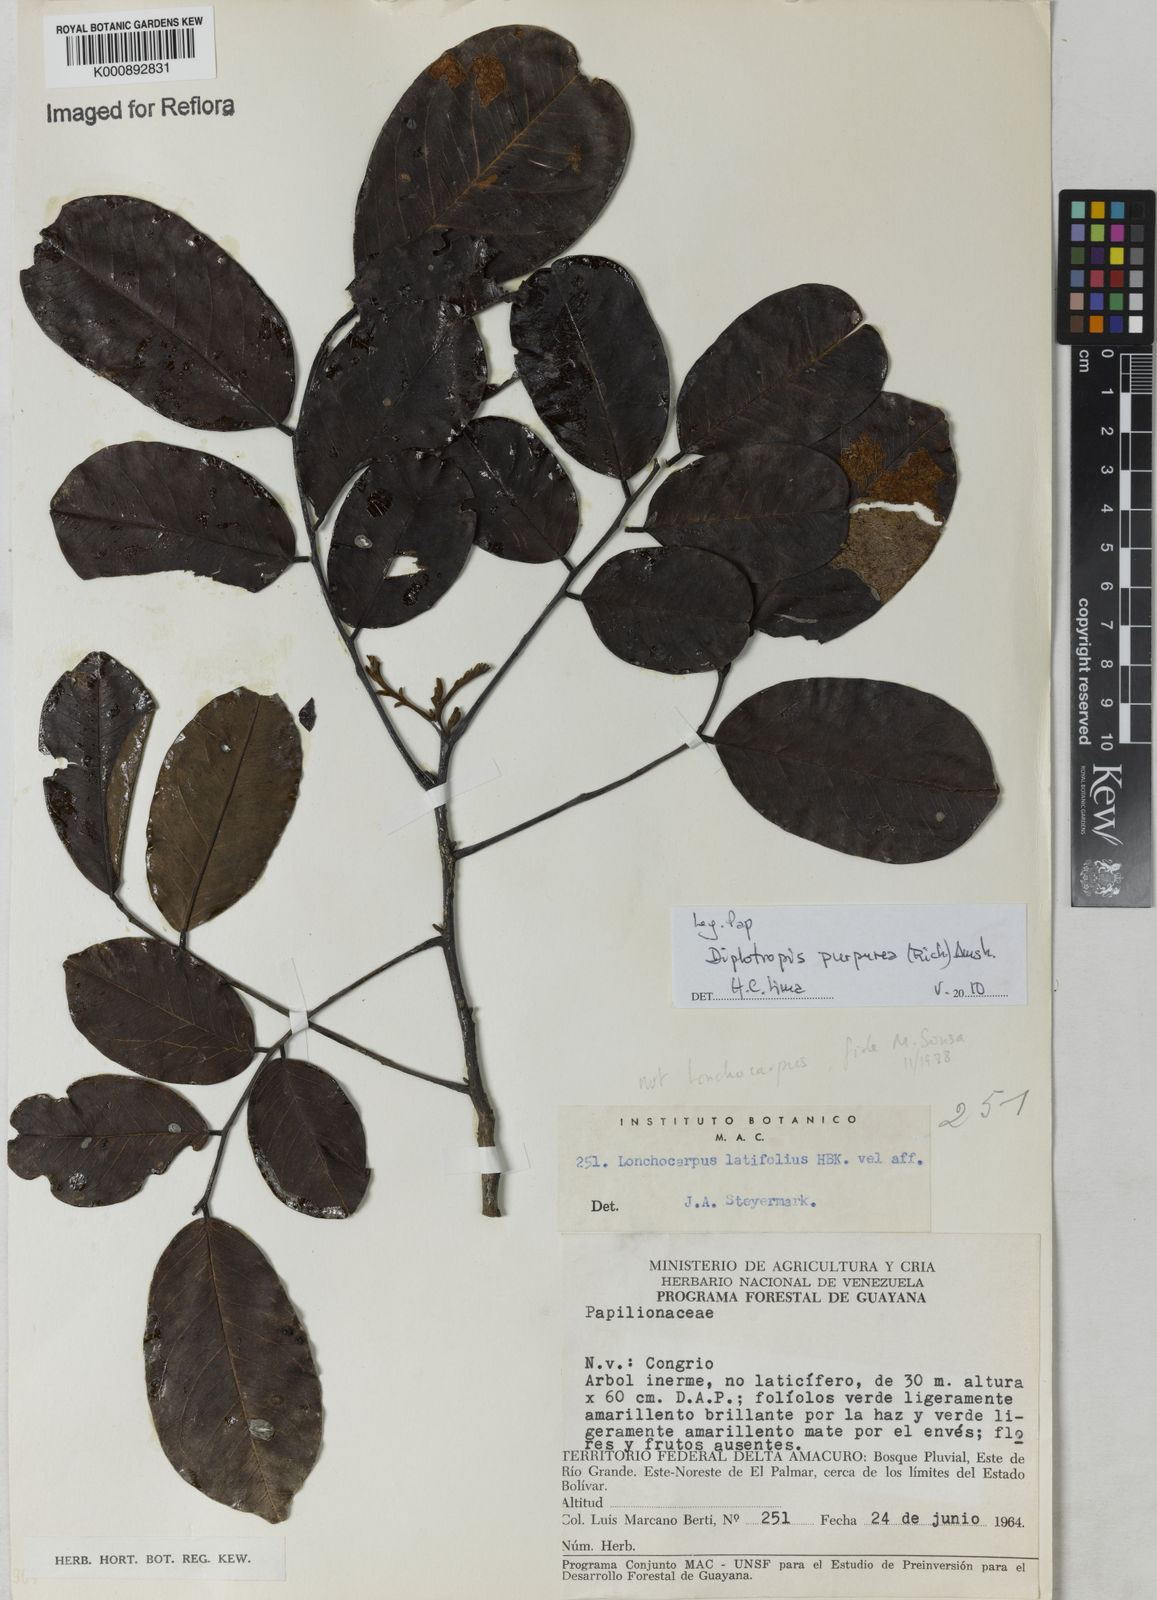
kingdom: Plantae
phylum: Tracheophyta
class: Magnoliopsida
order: Fabales
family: Fabaceae
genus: Diplotropis
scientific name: Diplotropis purpurea
